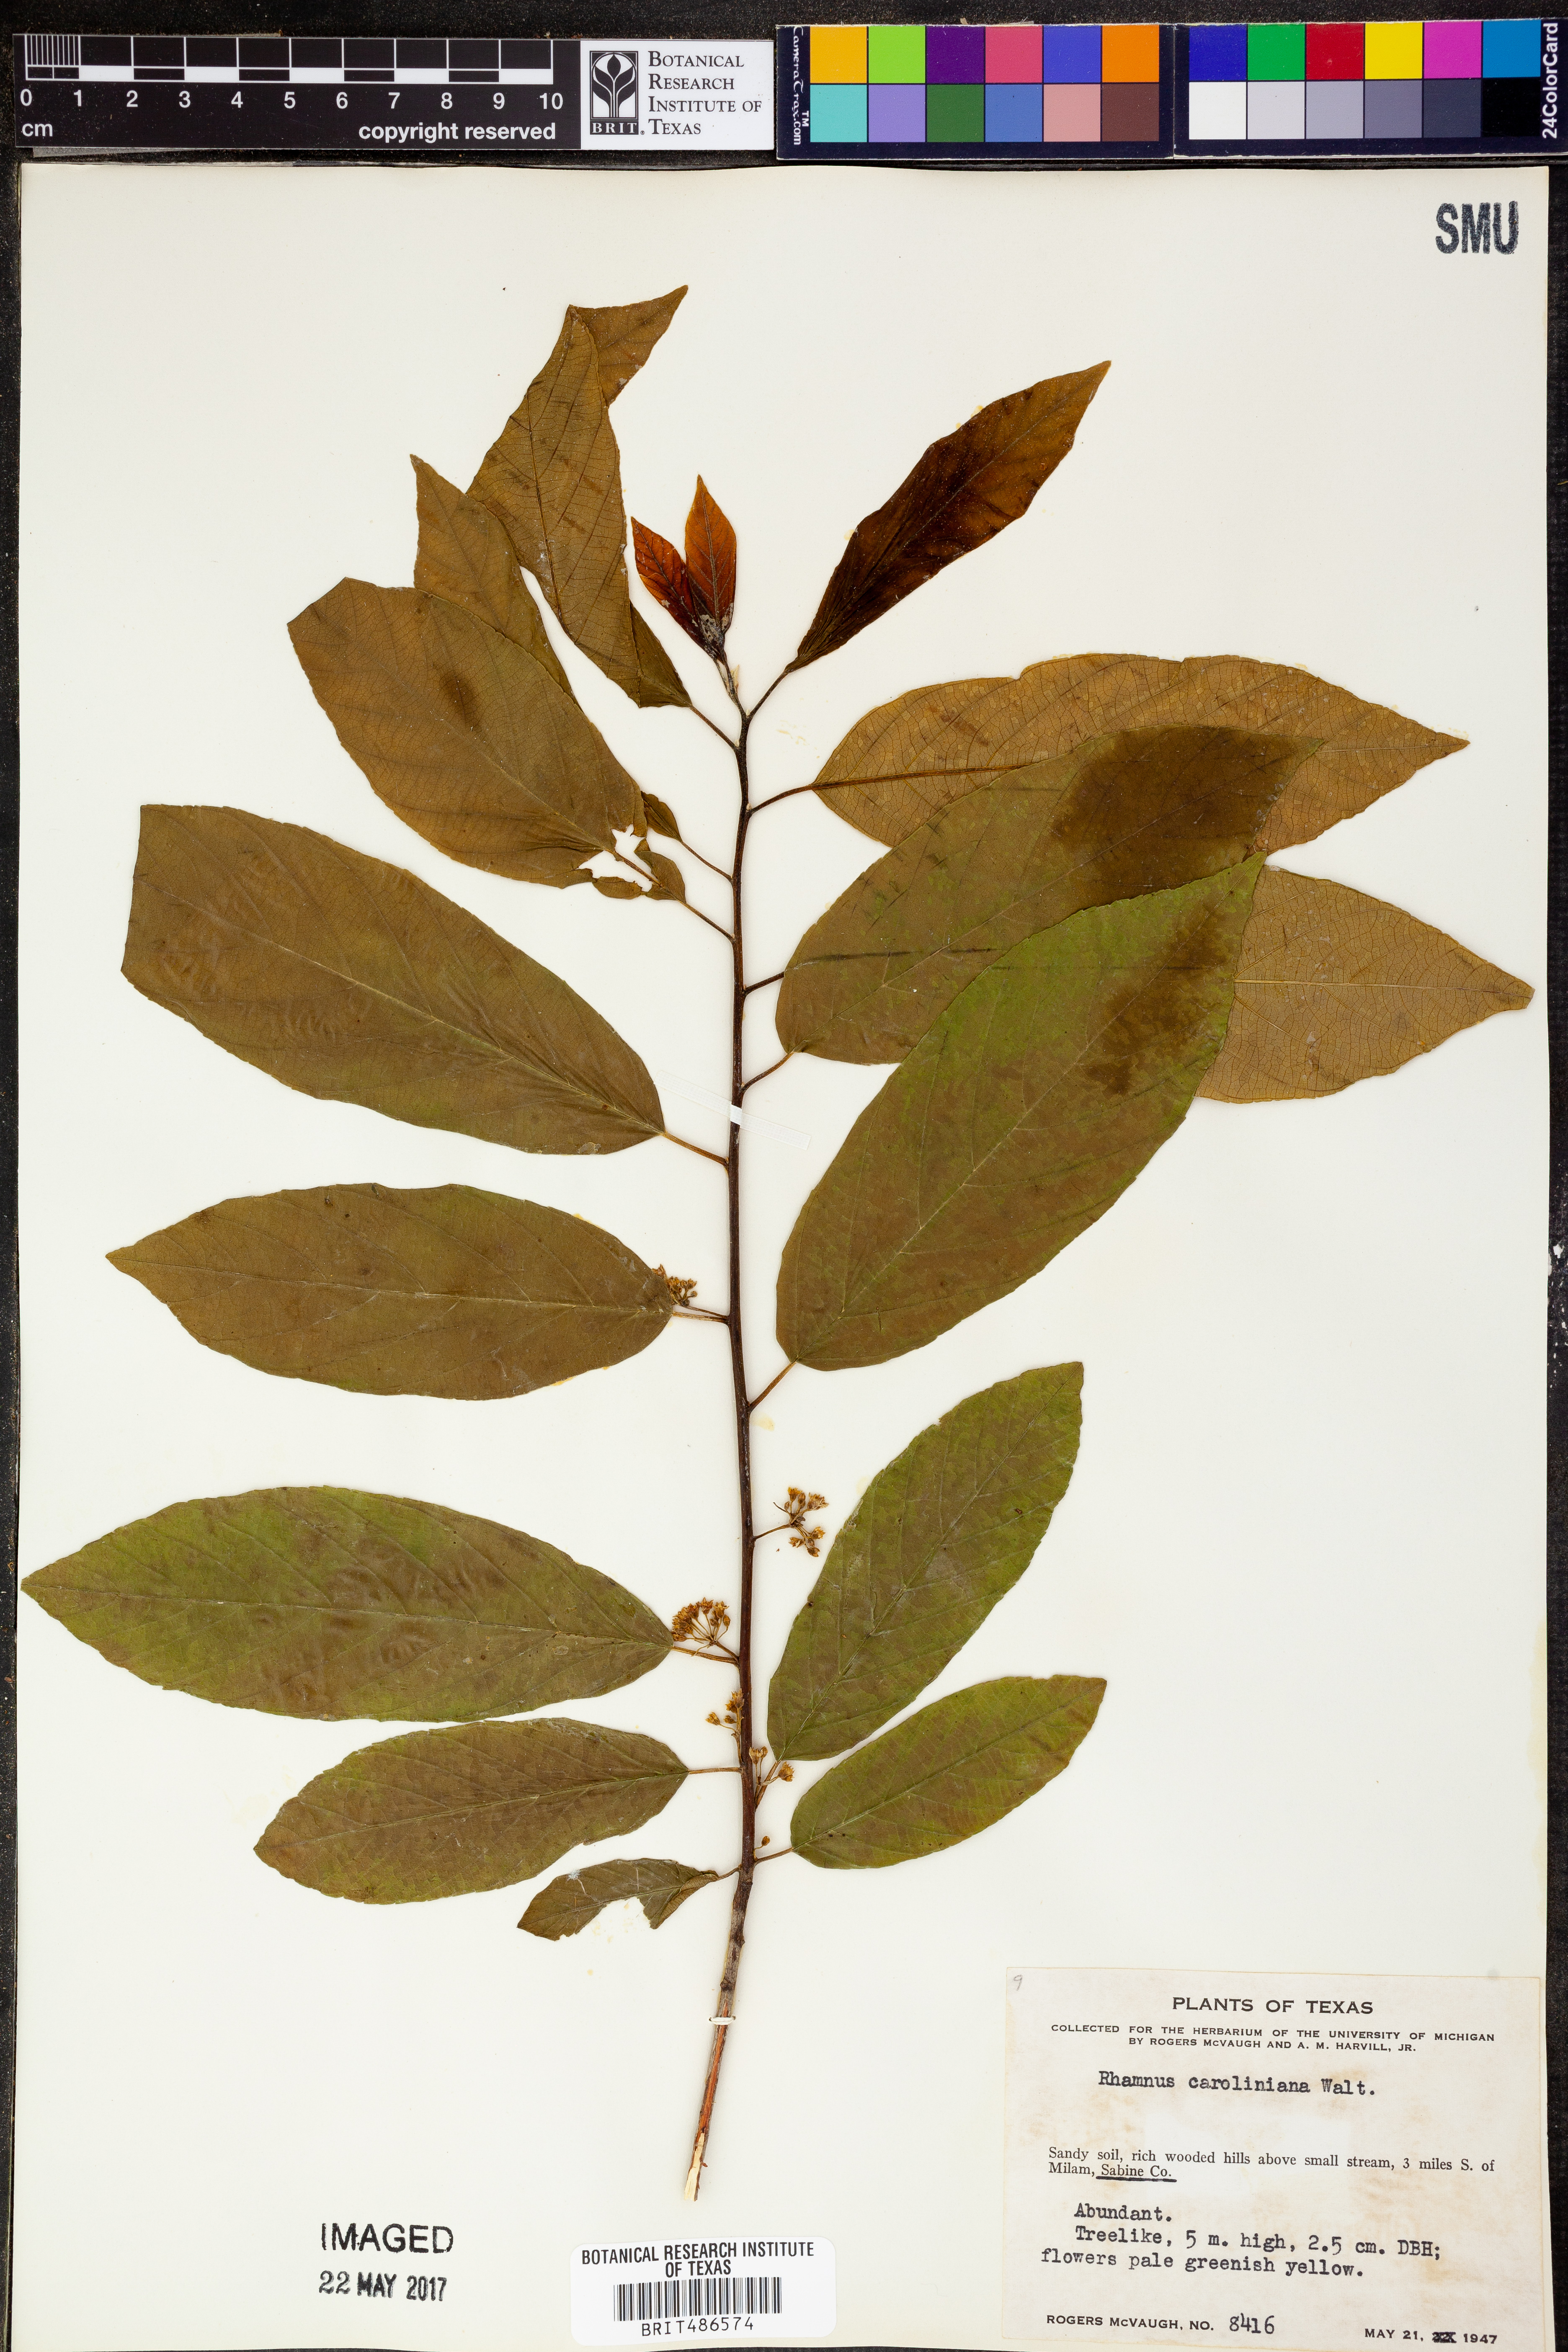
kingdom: Plantae
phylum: Tracheophyta
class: Magnoliopsida
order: Rosales
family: Rhamnaceae
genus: Frangula
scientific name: Frangula caroliniana
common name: Carolina buckthorn
